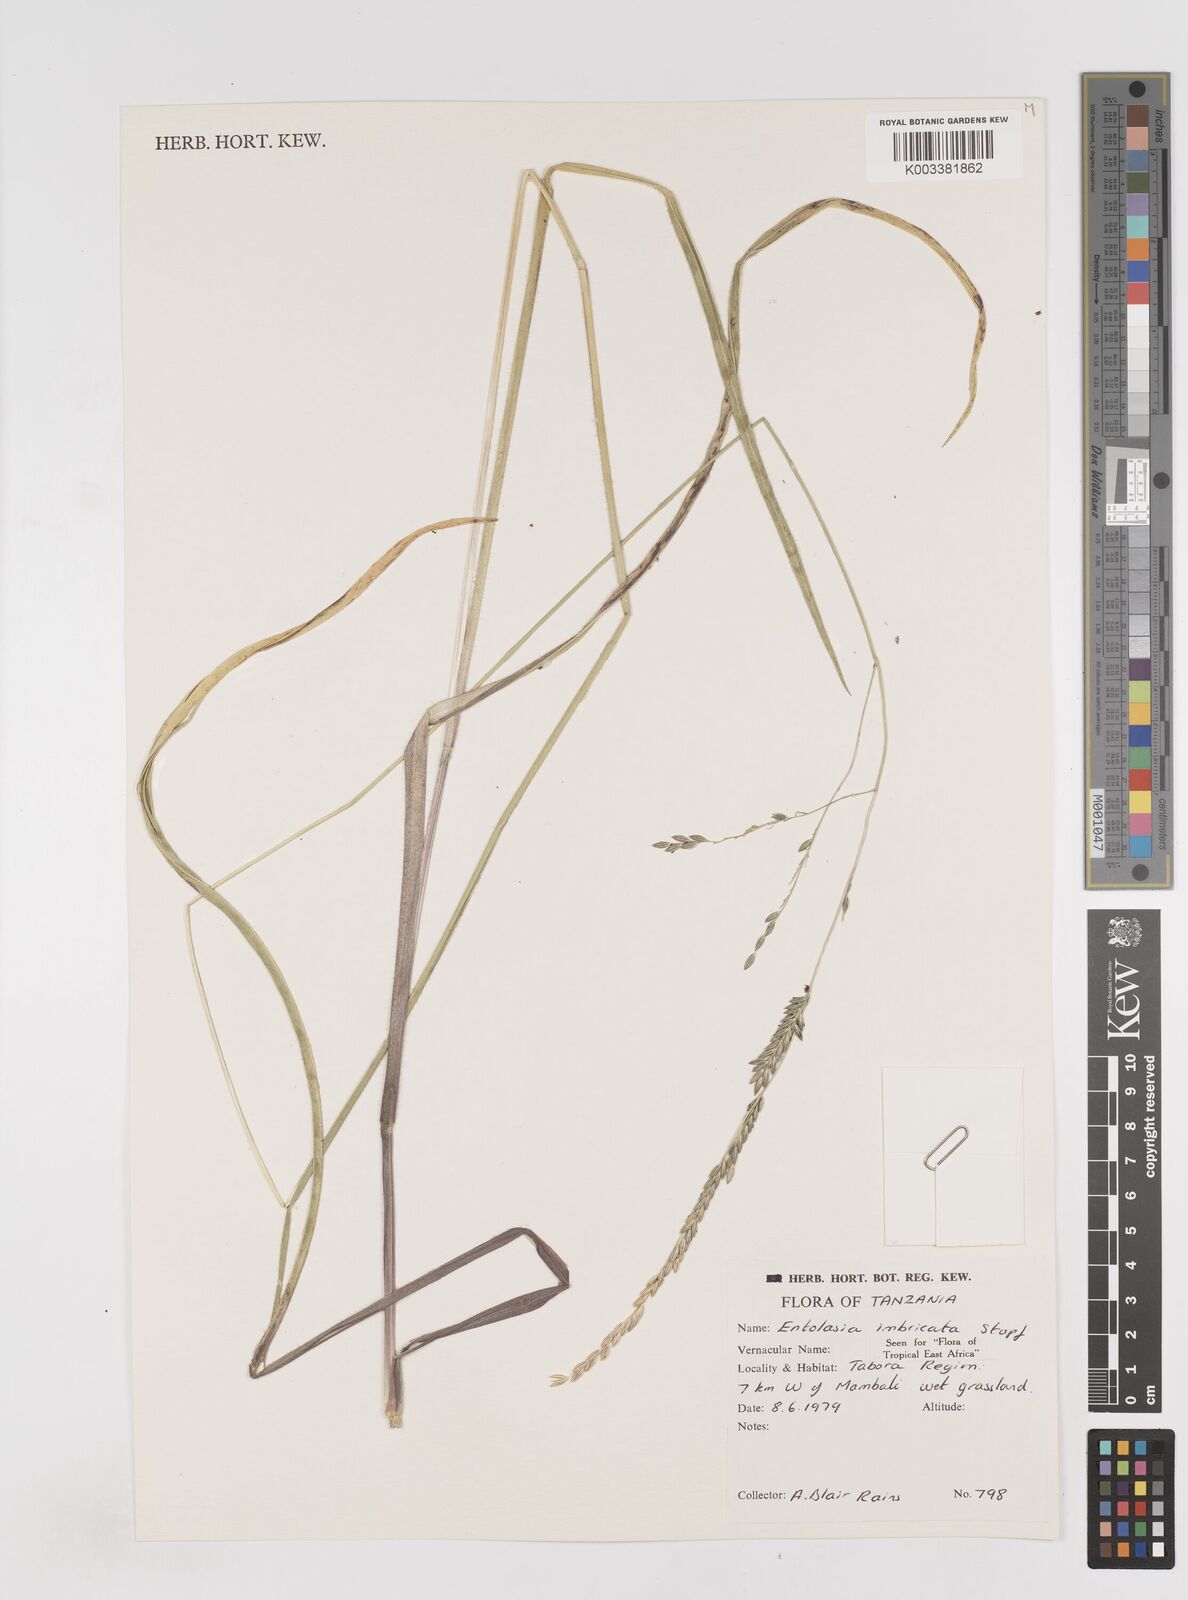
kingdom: Plantae
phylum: Tracheophyta
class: Liliopsida
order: Poales
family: Poaceae
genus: Entolasia
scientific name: Entolasia imbricata
